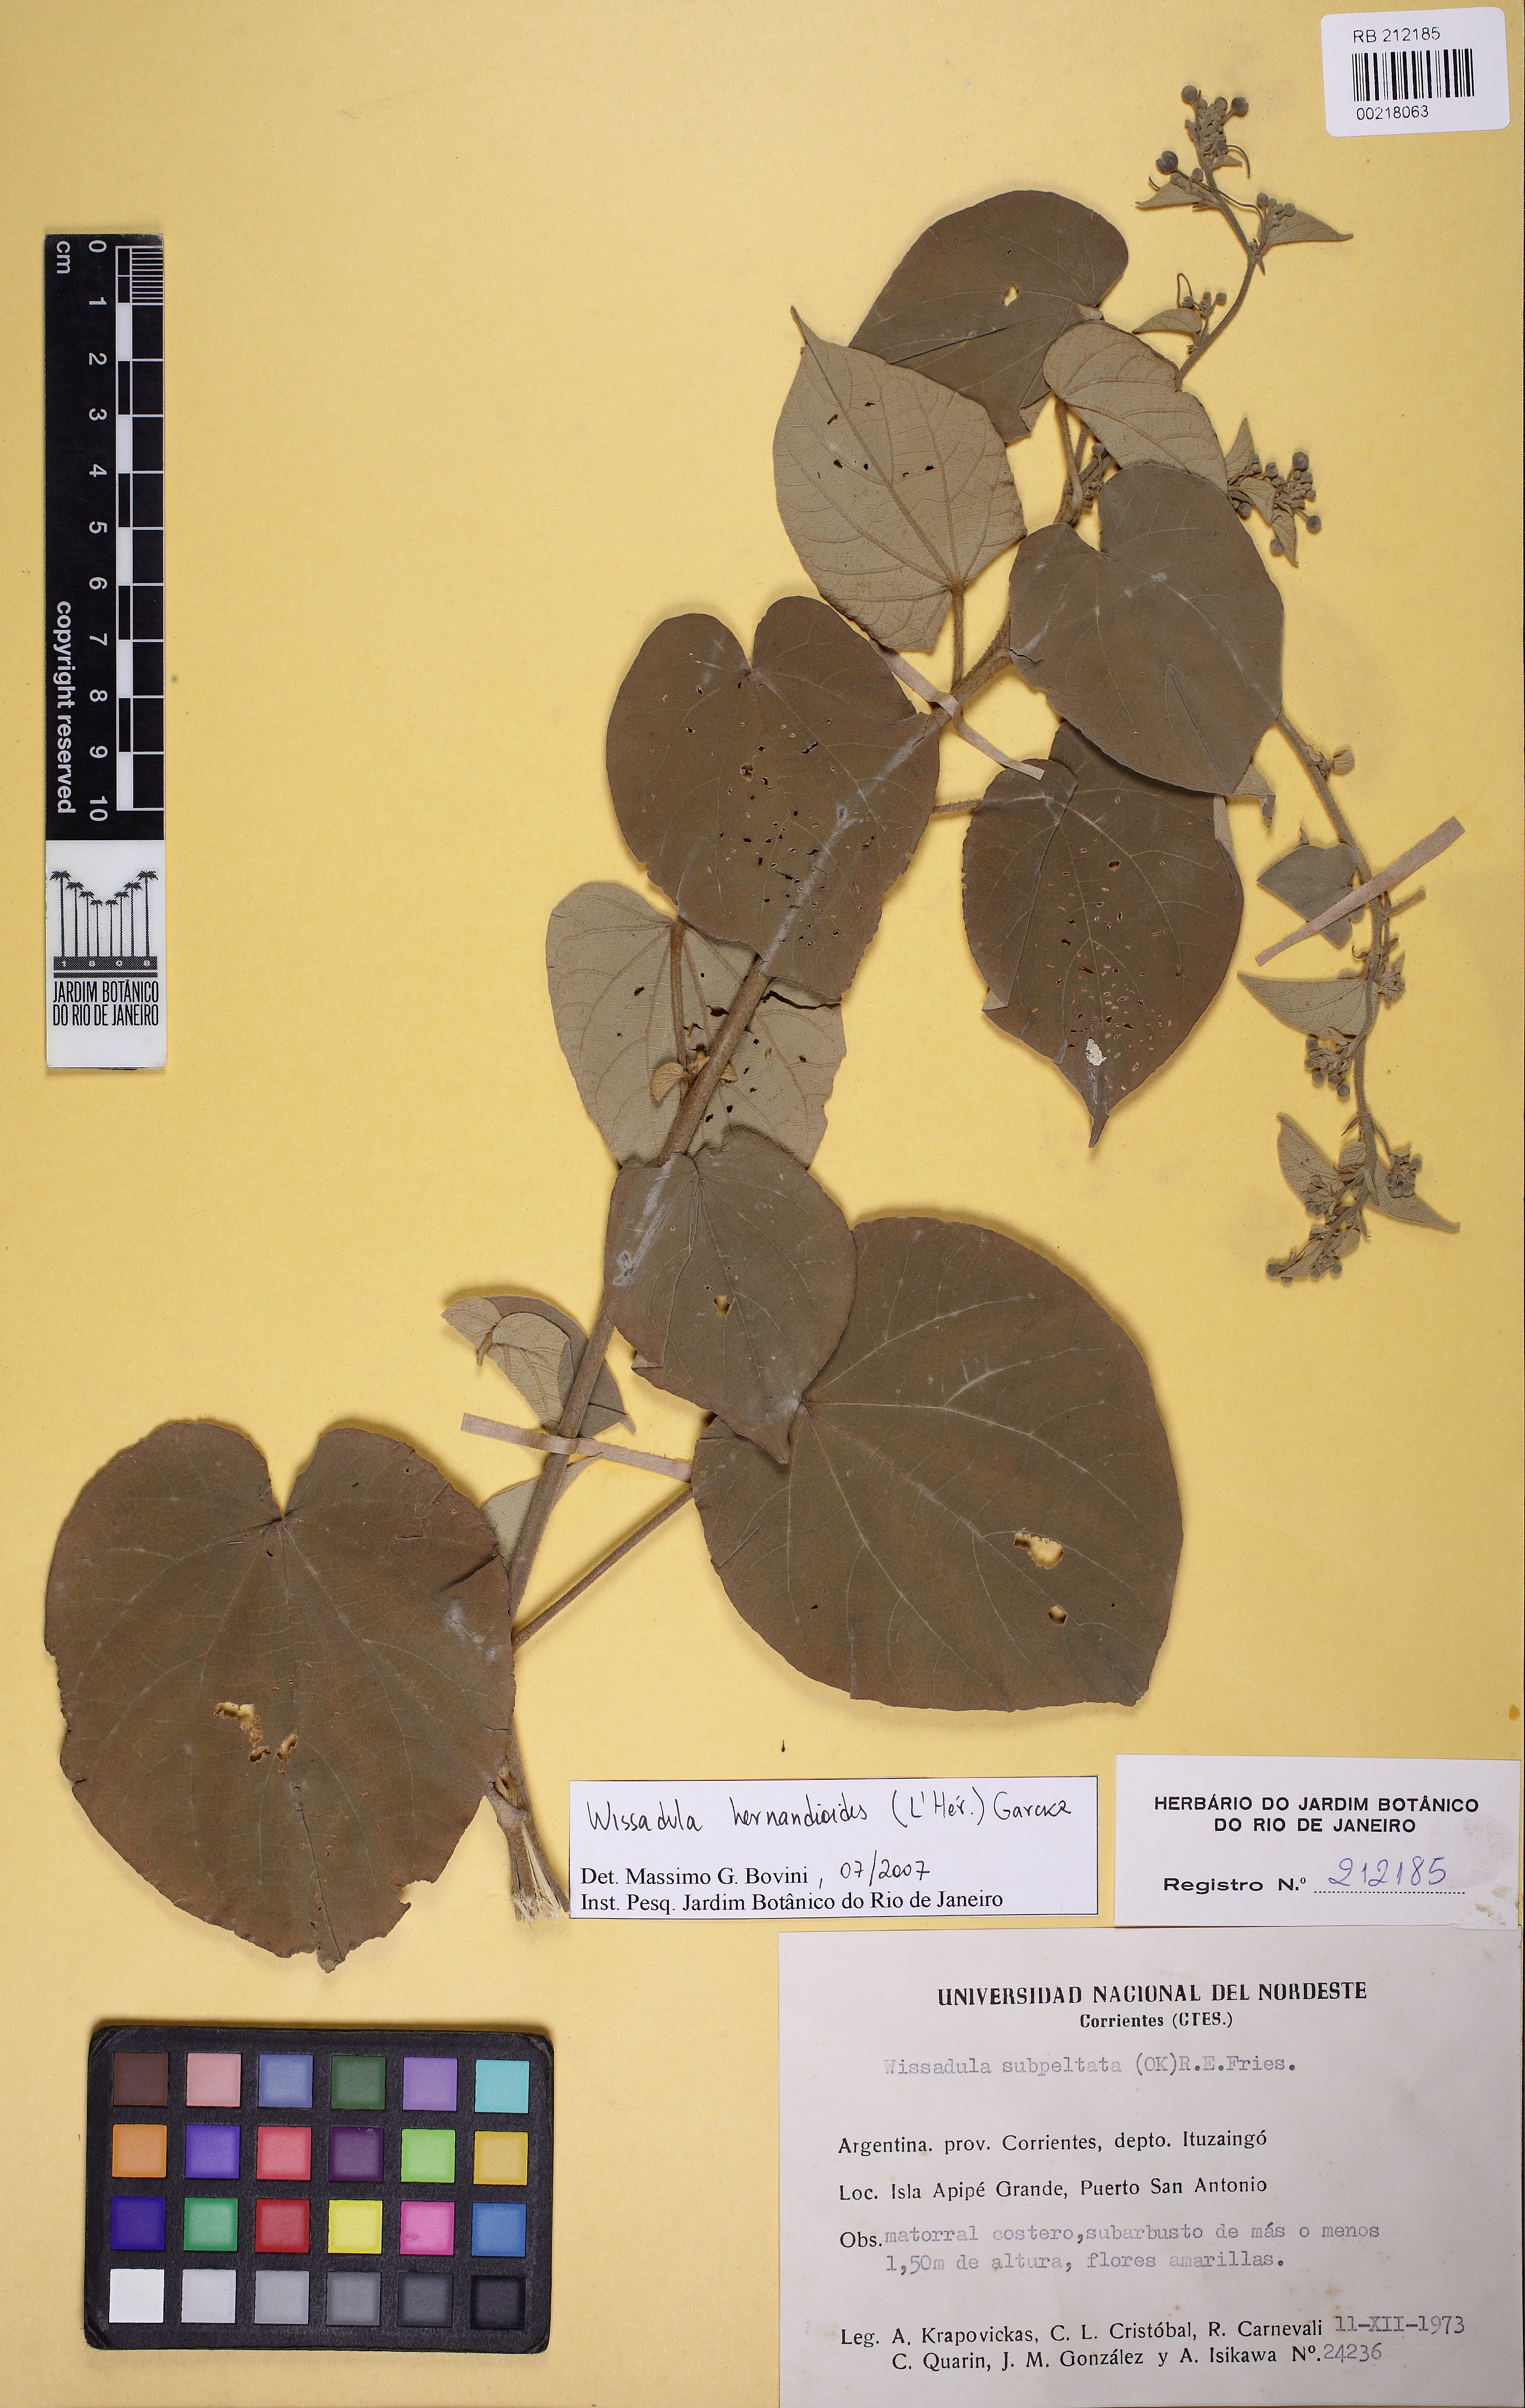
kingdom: Plantae
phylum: Tracheophyta
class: Magnoliopsida
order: Malvales
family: Malvaceae
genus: Wissadula
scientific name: Wissadula hernandioides
